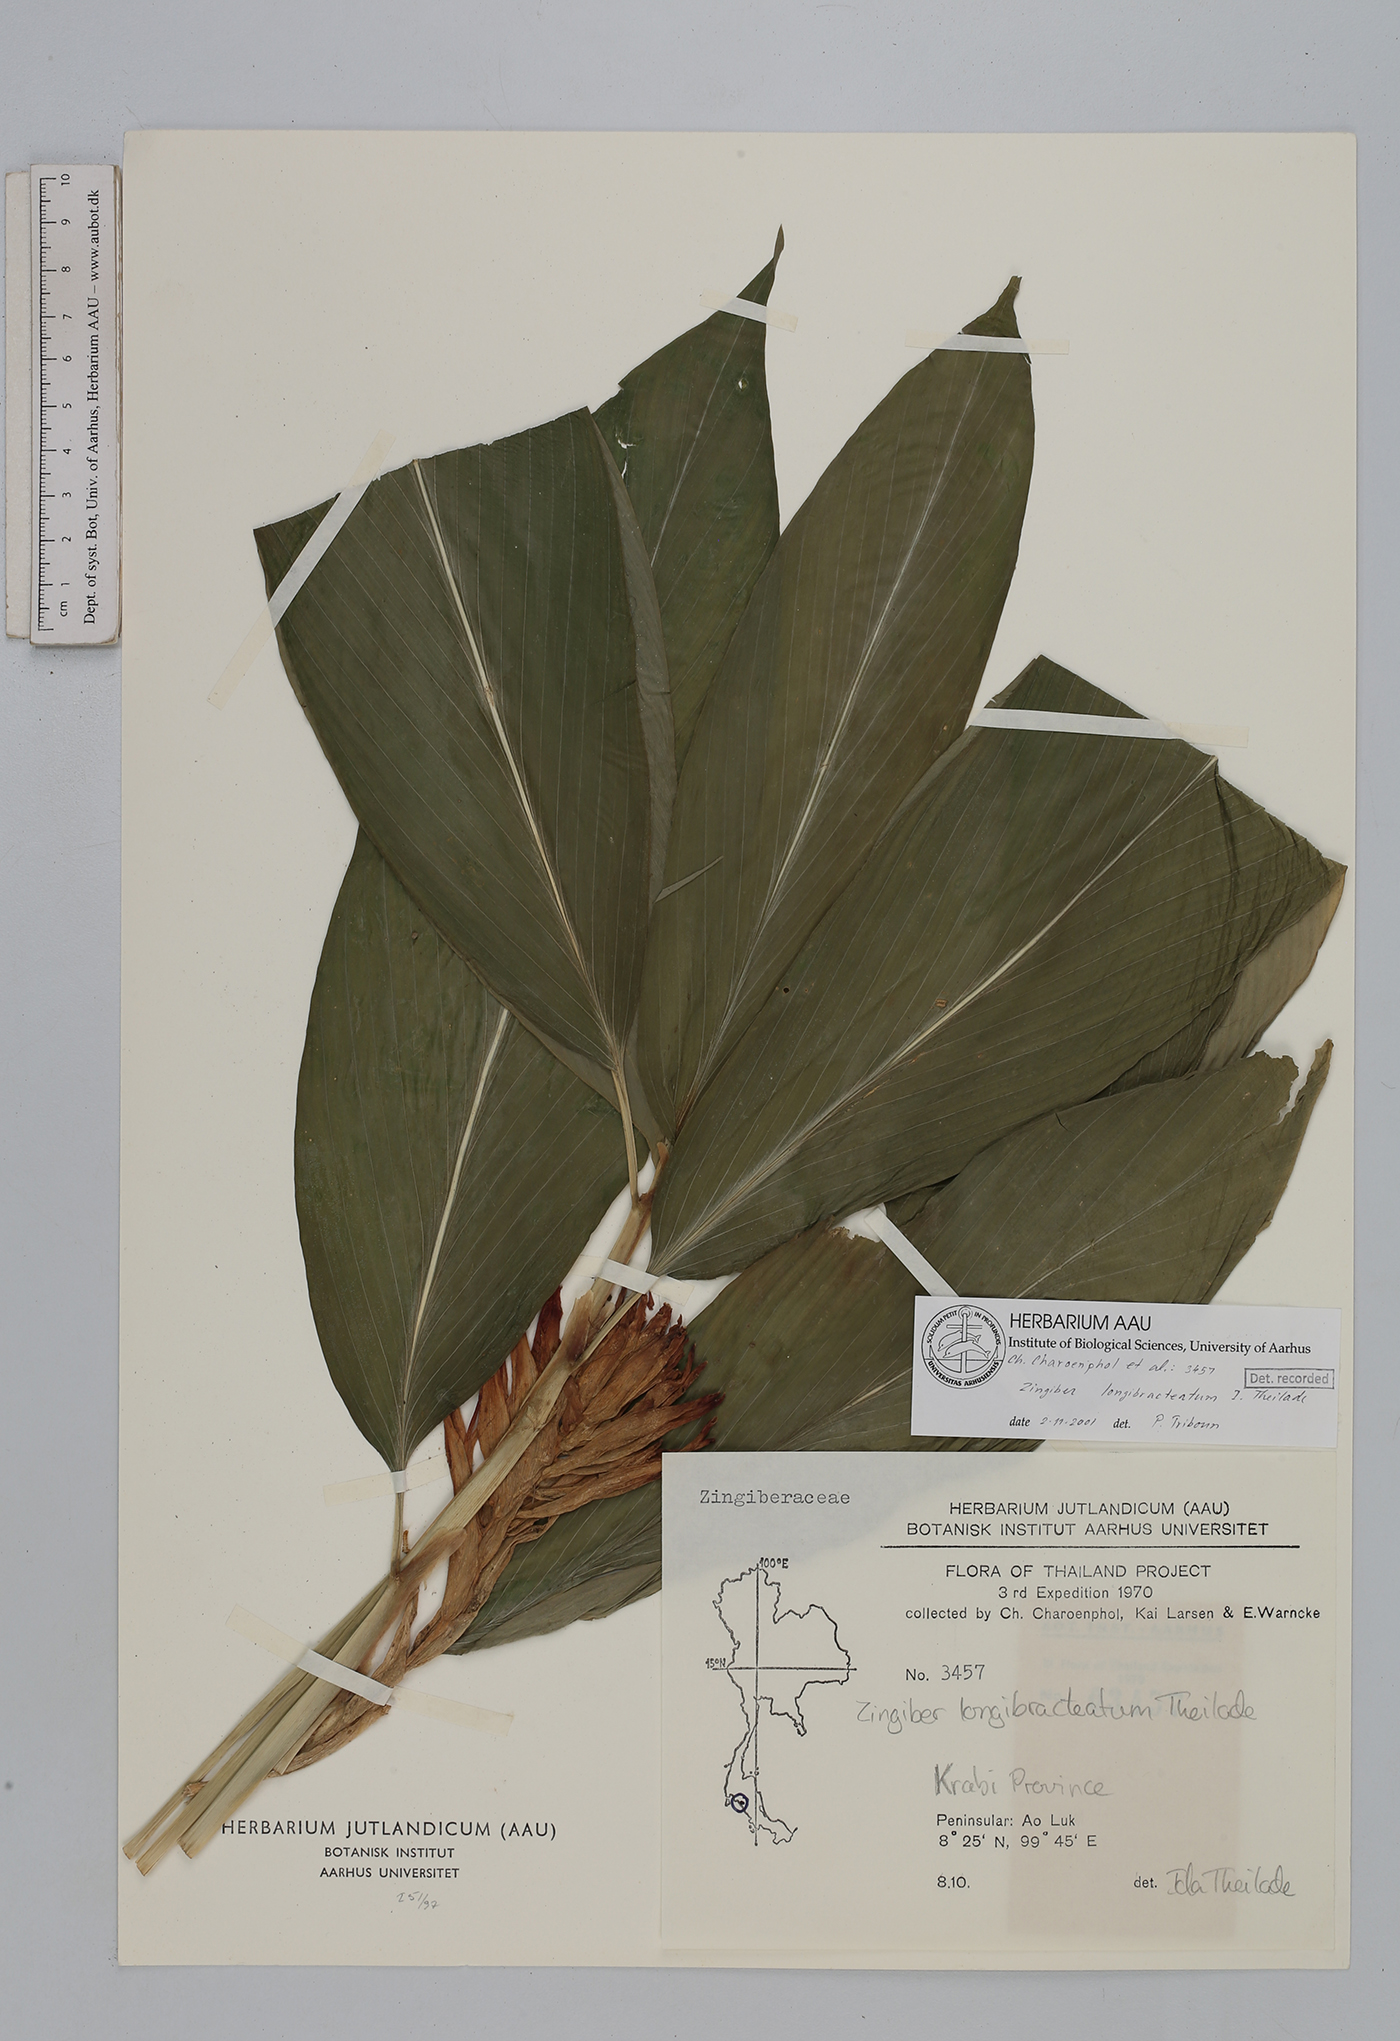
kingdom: Plantae
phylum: Tracheophyta
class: Liliopsida
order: Zingiberales
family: Zingiberaceae
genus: Zingiber
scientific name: Zingiber longibracteatum
